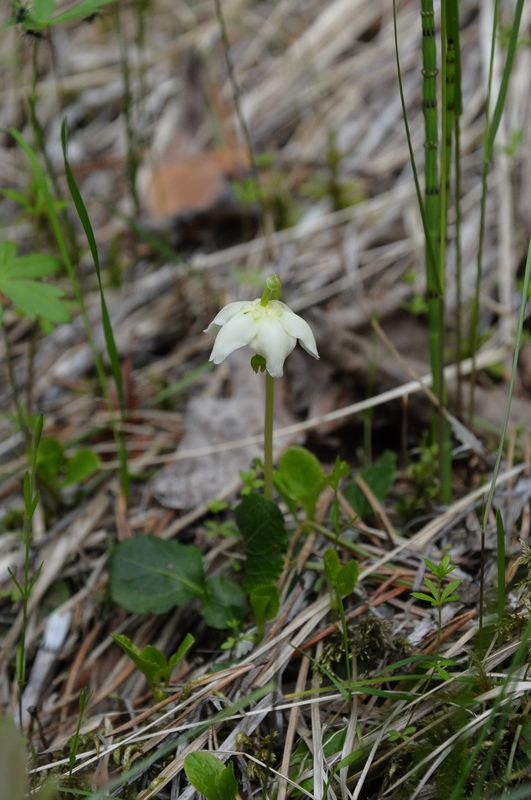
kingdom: Plantae
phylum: Tracheophyta
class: Magnoliopsida
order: Ericales
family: Ericaceae
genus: Moneses
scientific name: Moneses uniflora
